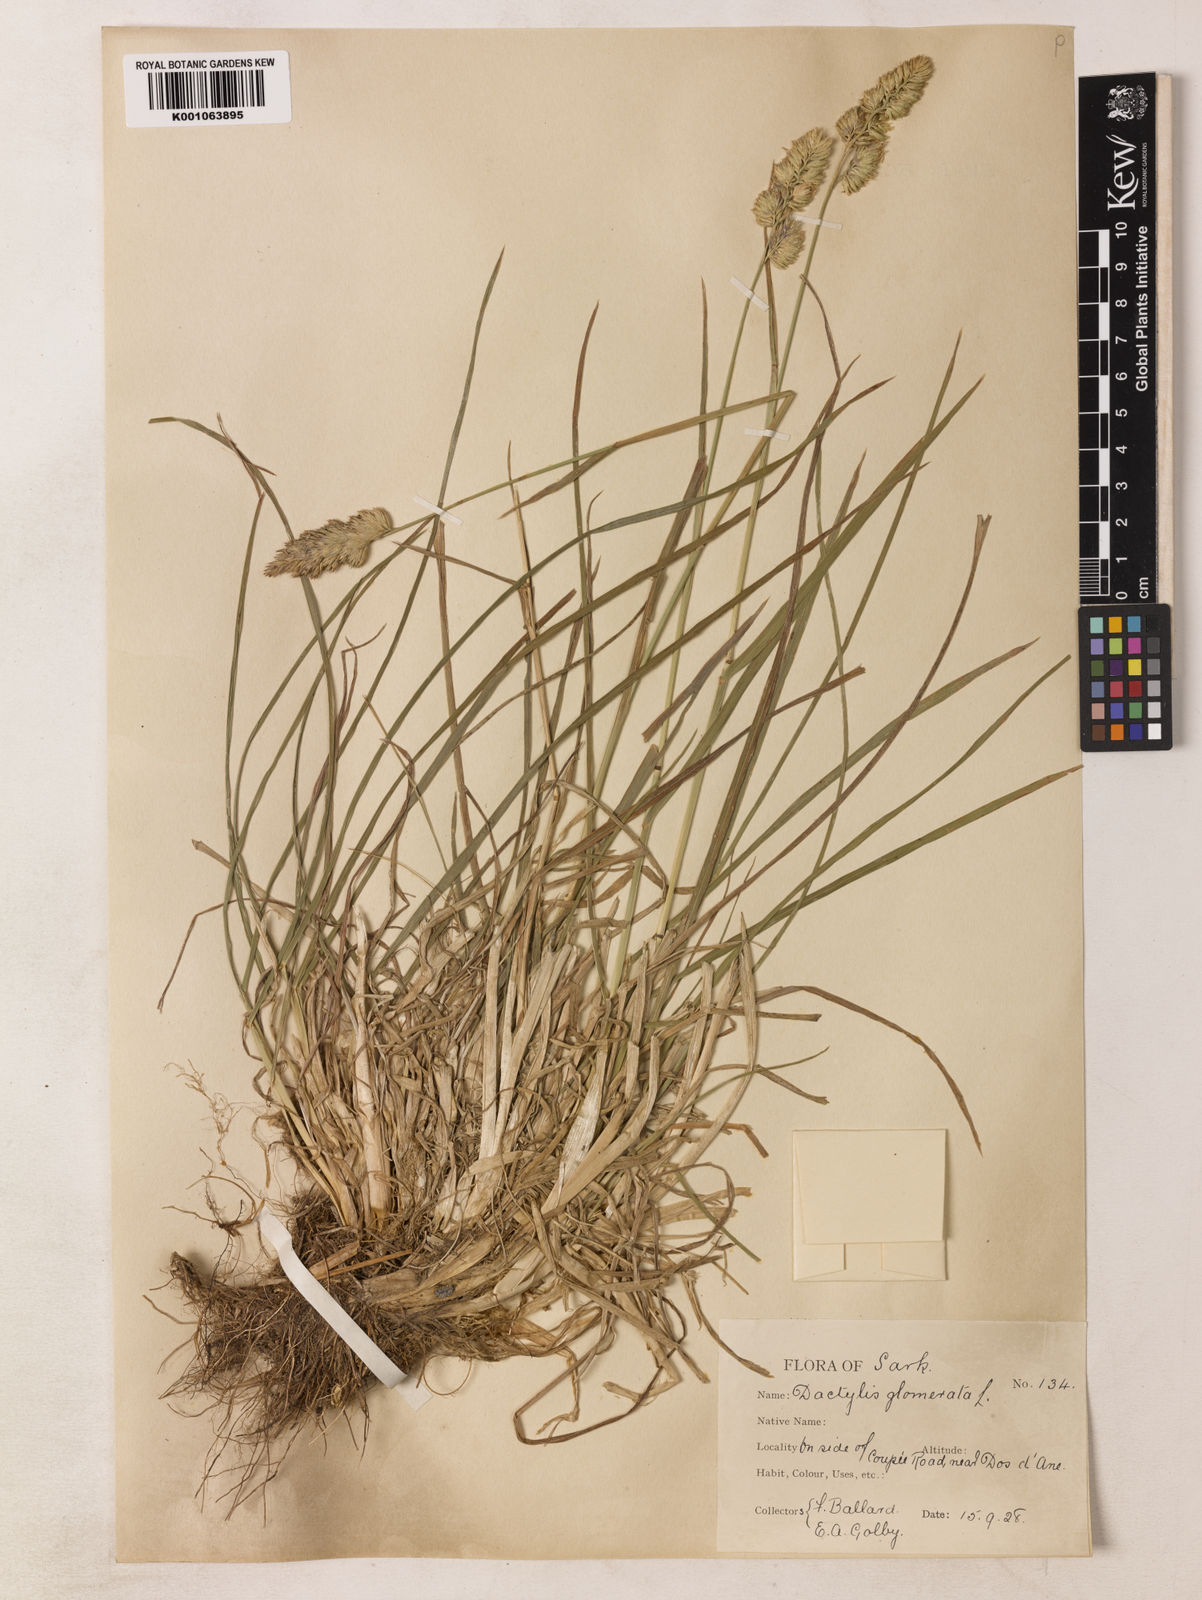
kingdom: Plantae
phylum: Tracheophyta
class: Liliopsida
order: Poales
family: Poaceae
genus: Dactylis
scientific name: Dactylis glomerata
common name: Orchardgrass
